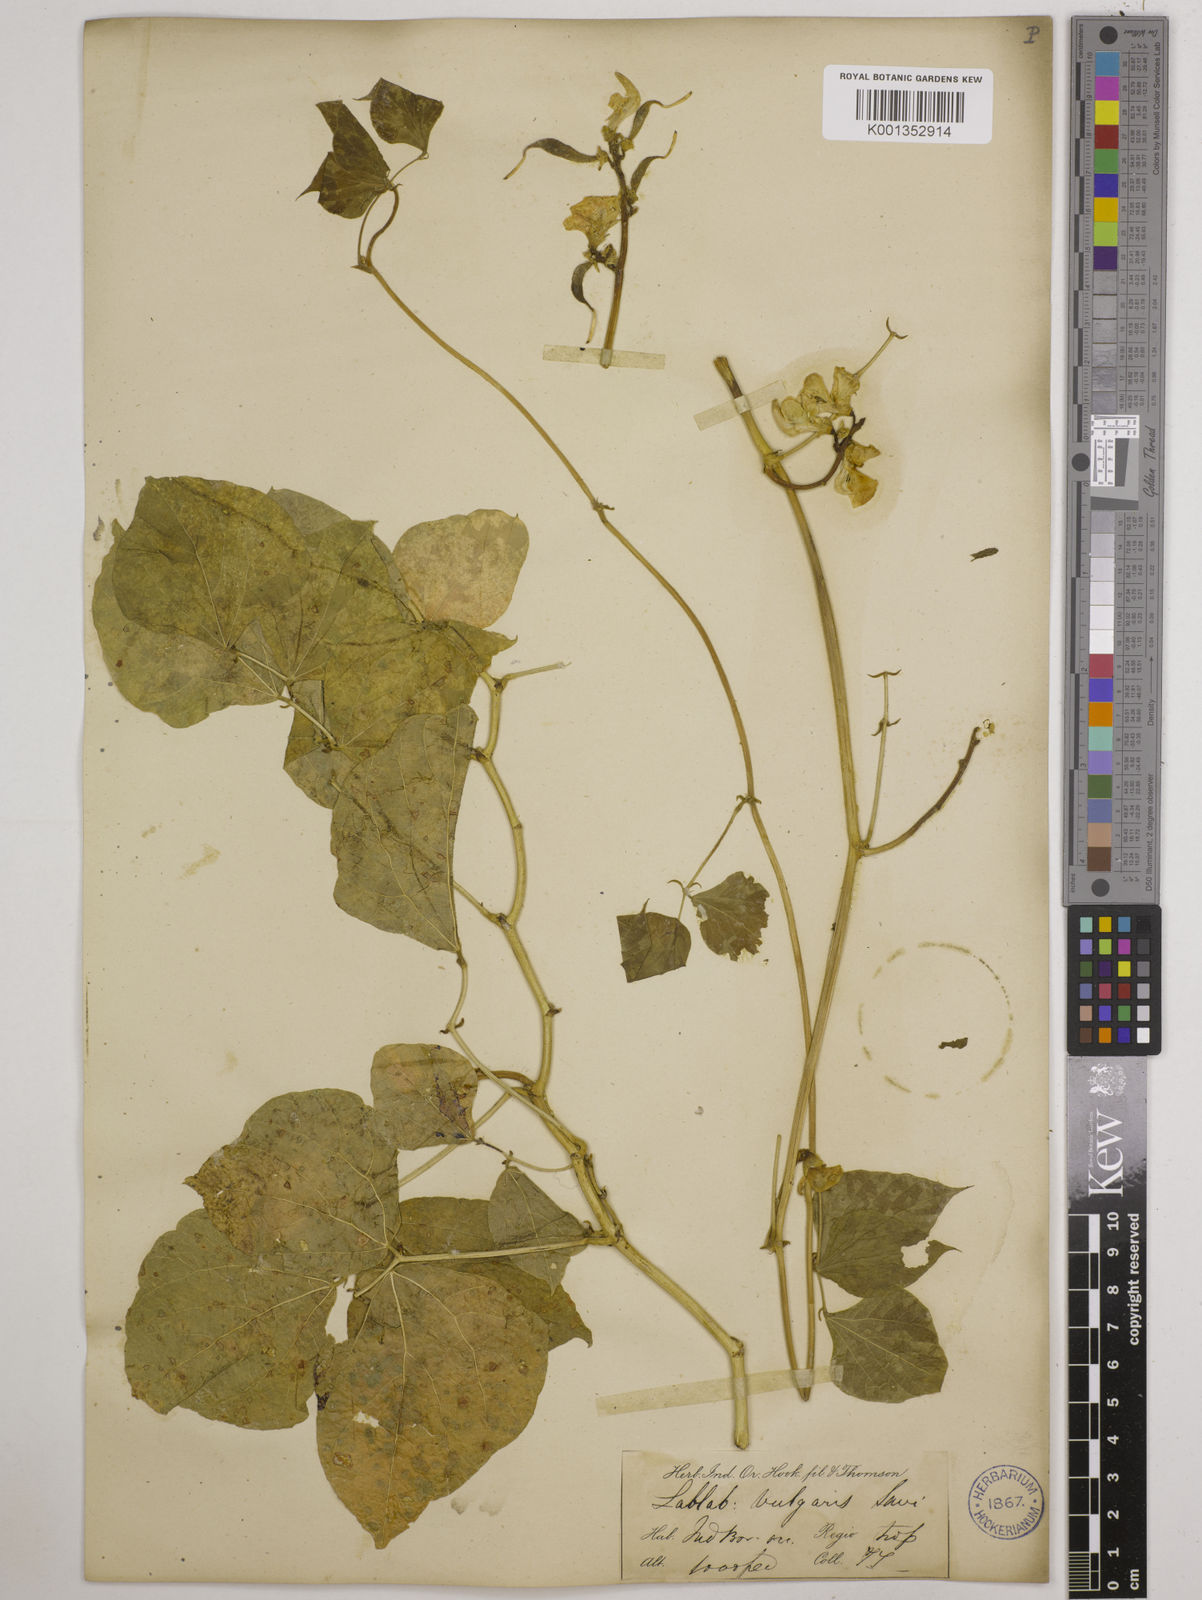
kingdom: Plantae
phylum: Tracheophyta
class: Magnoliopsida
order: Fabales
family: Fabaceae
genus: Lablab
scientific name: Lablab purpureus
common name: Lablab-bean
